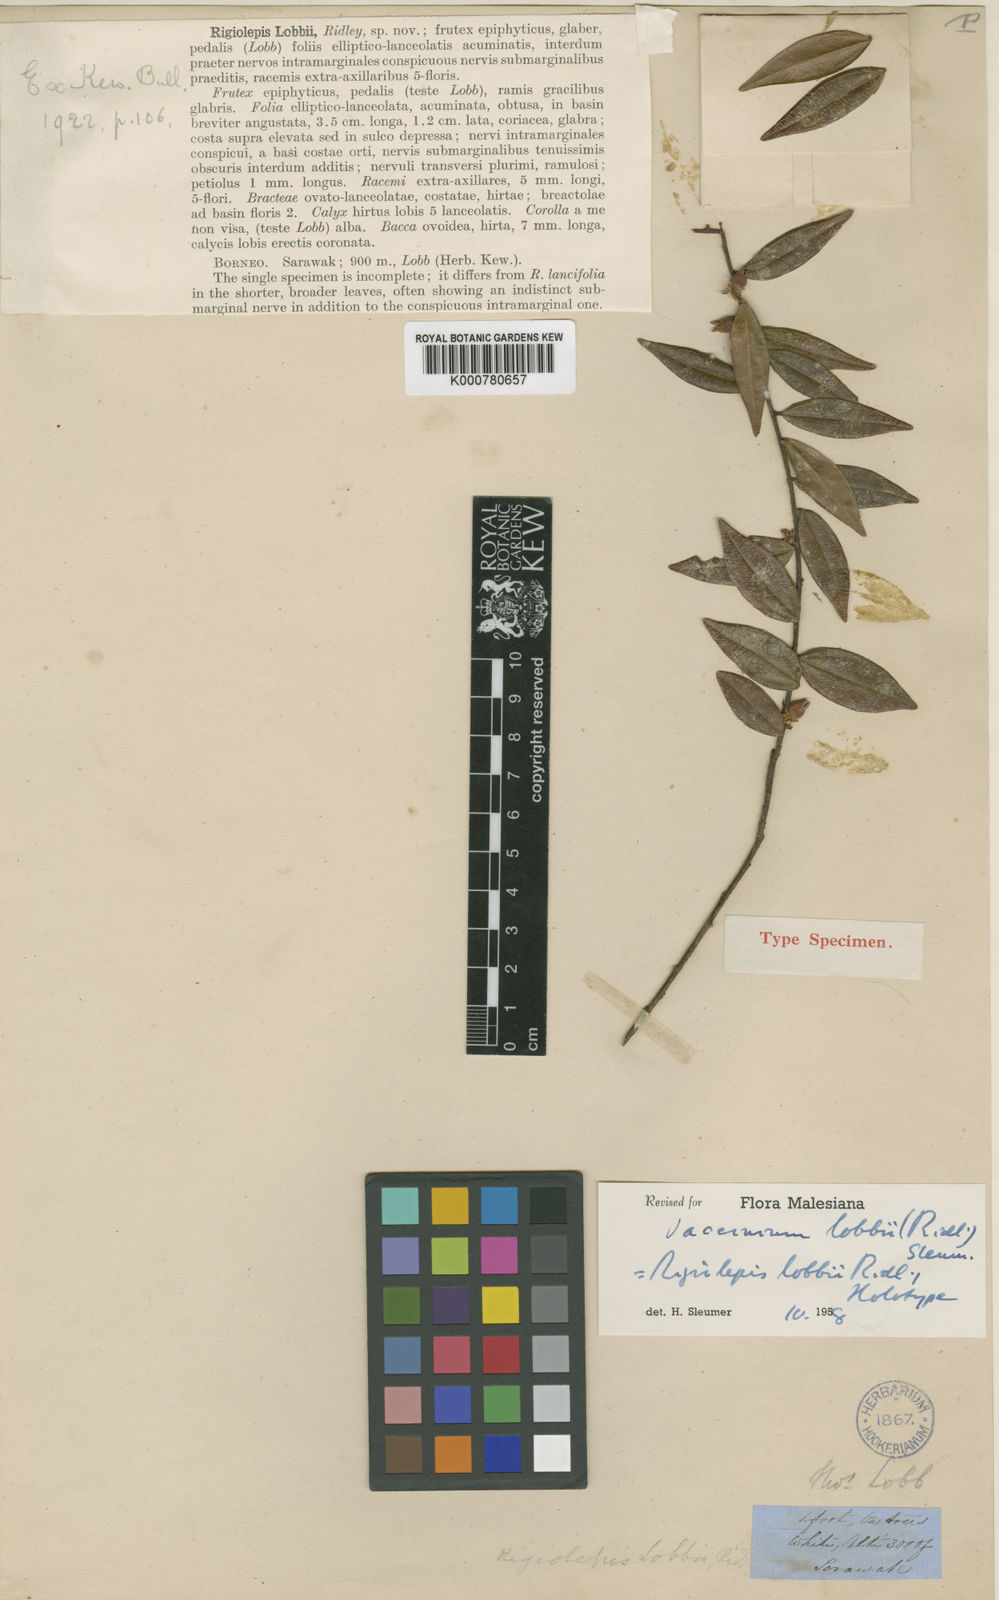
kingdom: Plantae
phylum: Tracheophyta
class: Magnoliopsida
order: Ericales
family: Ericaceae
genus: Rigiolepis
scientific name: Rigiolepis lobbii
